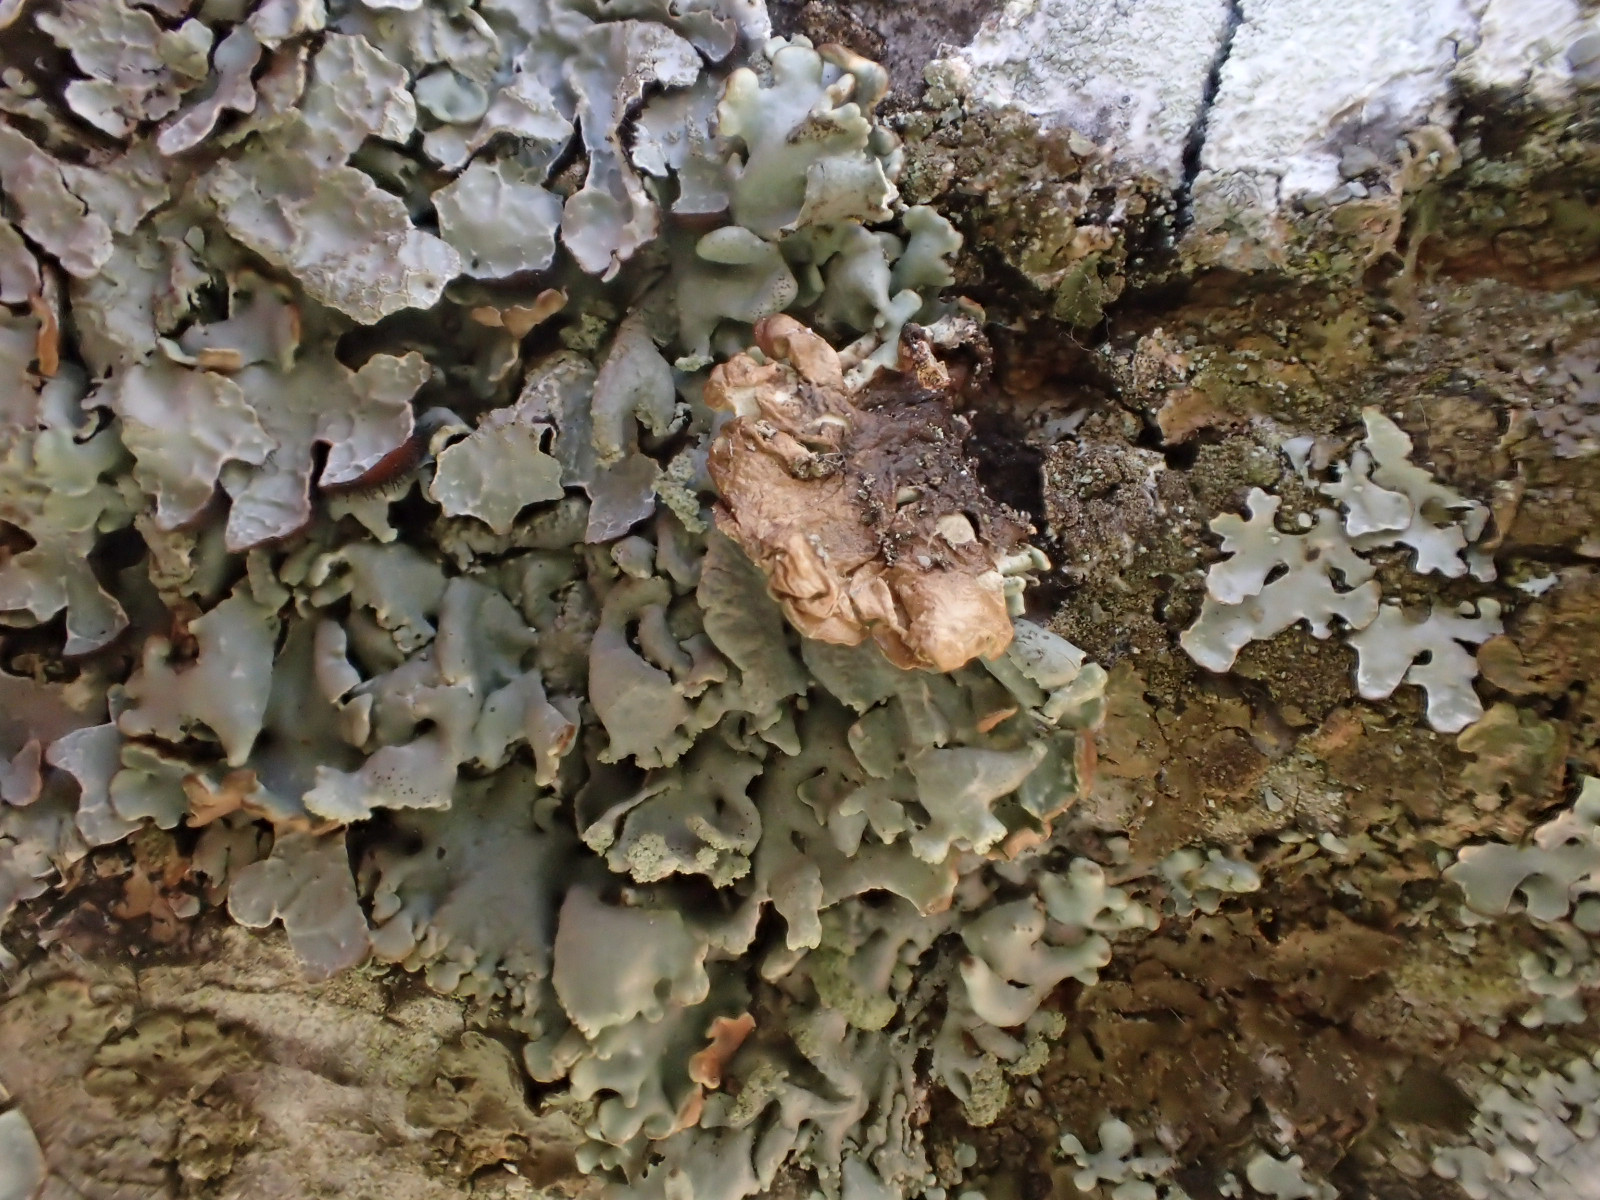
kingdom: Fungi
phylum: Ascomycota
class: Lecanoromycetes
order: Lecanorales
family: Parmeliaceae
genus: Hypogymnia
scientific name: Hypogymnia physodes
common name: almindelig kvistlav
